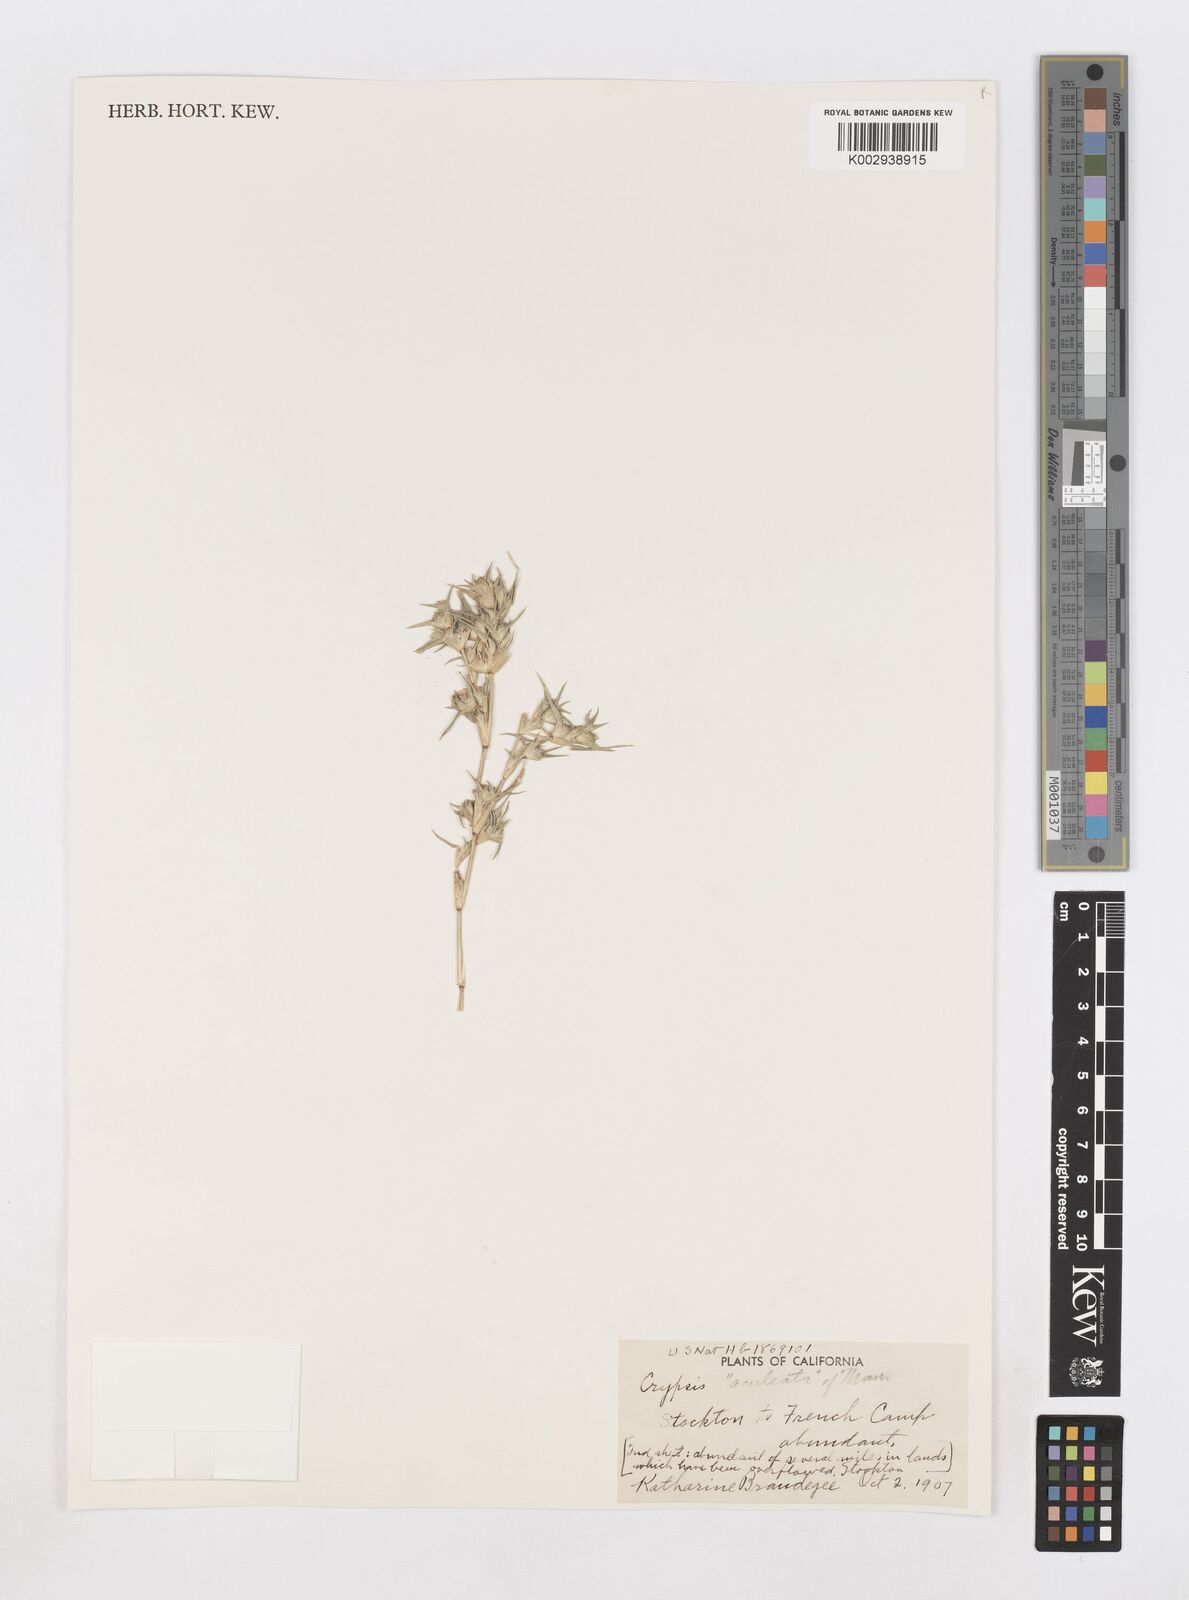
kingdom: Animalia
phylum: Arthropoda
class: Insecta
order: Coleoptera
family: Tenebrionidae
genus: Crypsis
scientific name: Crypsis
